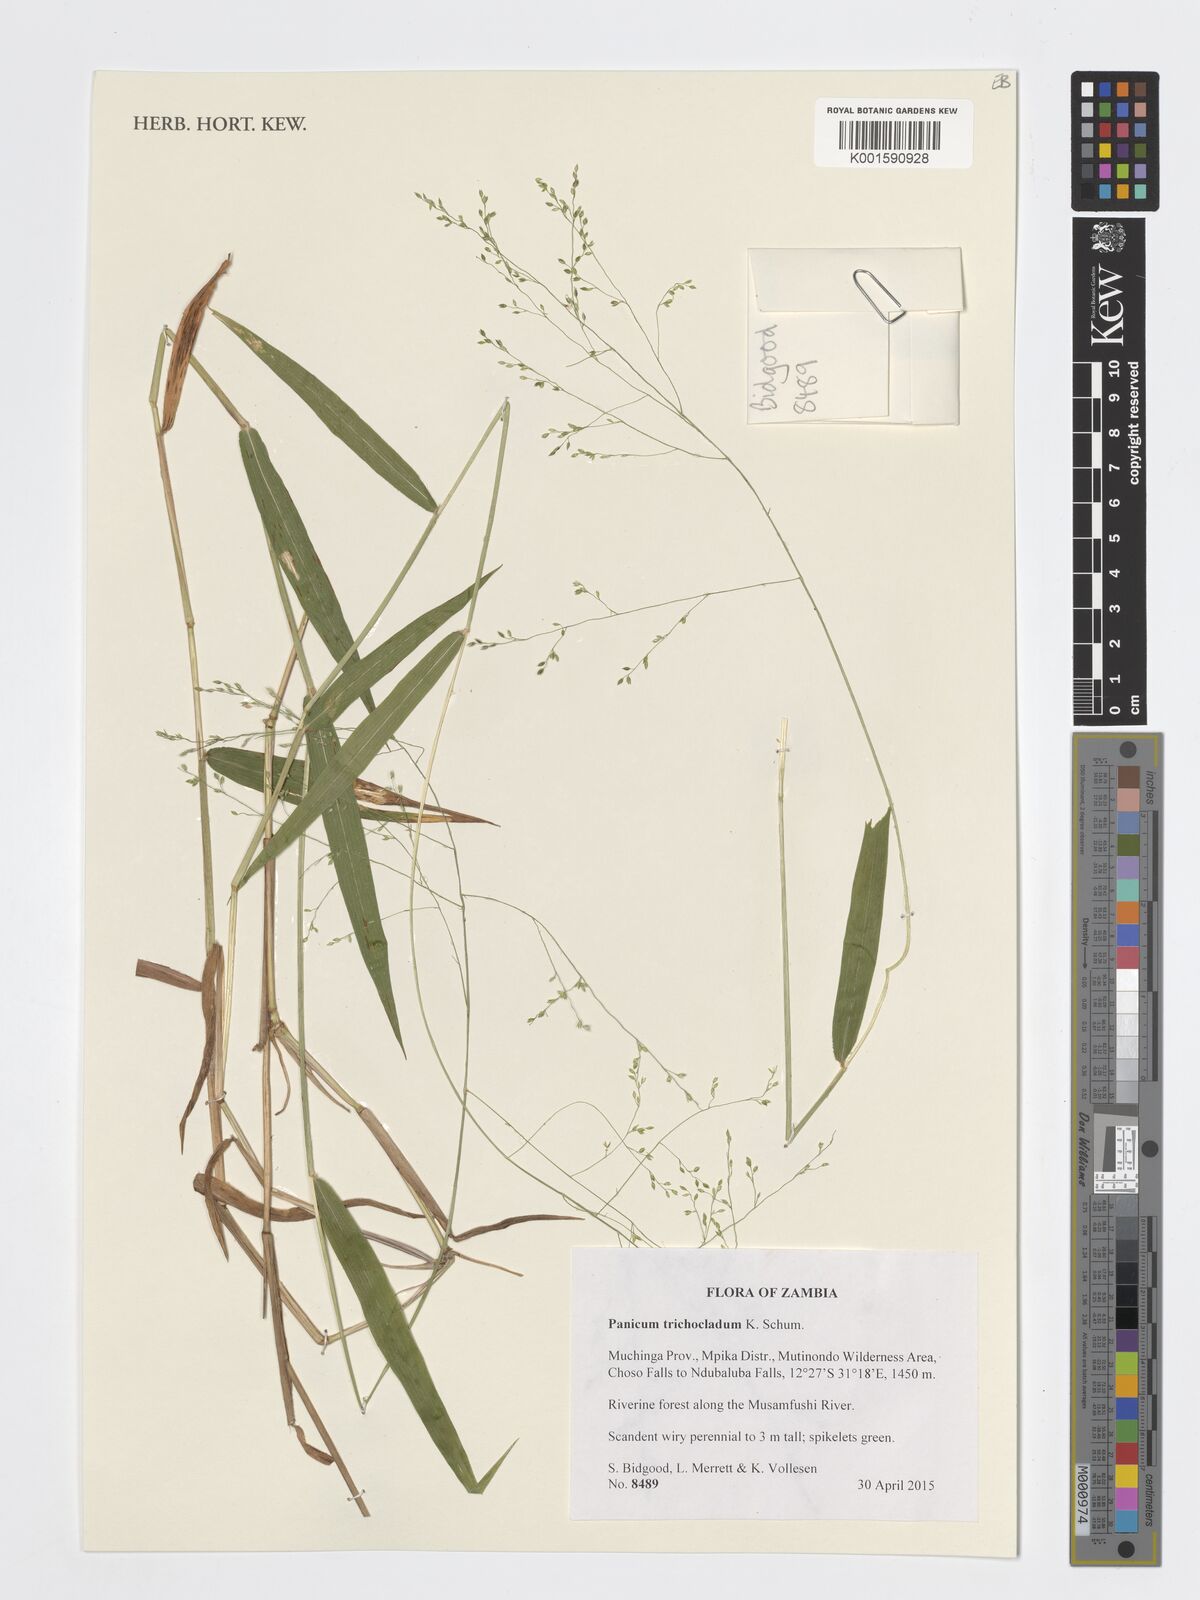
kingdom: Plantae
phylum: Tracheophyta
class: Liliopsida
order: Poales
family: Poaceae
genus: Panicum
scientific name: Panicum trichocladum
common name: Donkey grass
